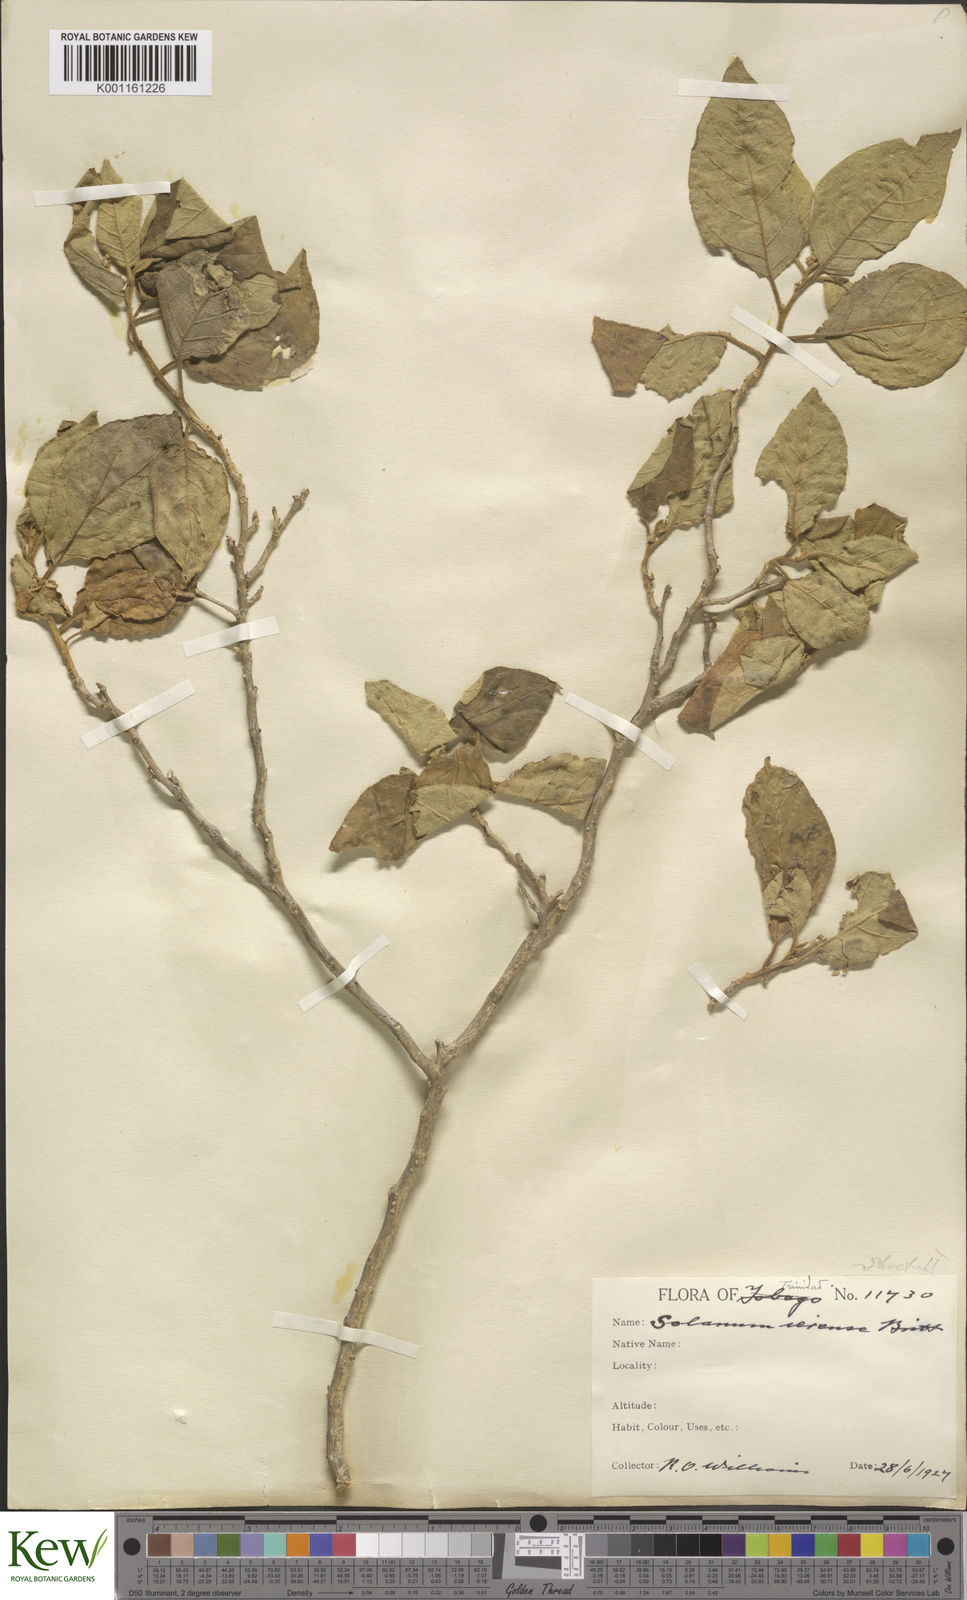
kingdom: Plantae
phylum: Tracheophyta
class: Magnoliopsida
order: Solanales
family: Solanaceae
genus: Solanum
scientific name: Solanum gardneri
